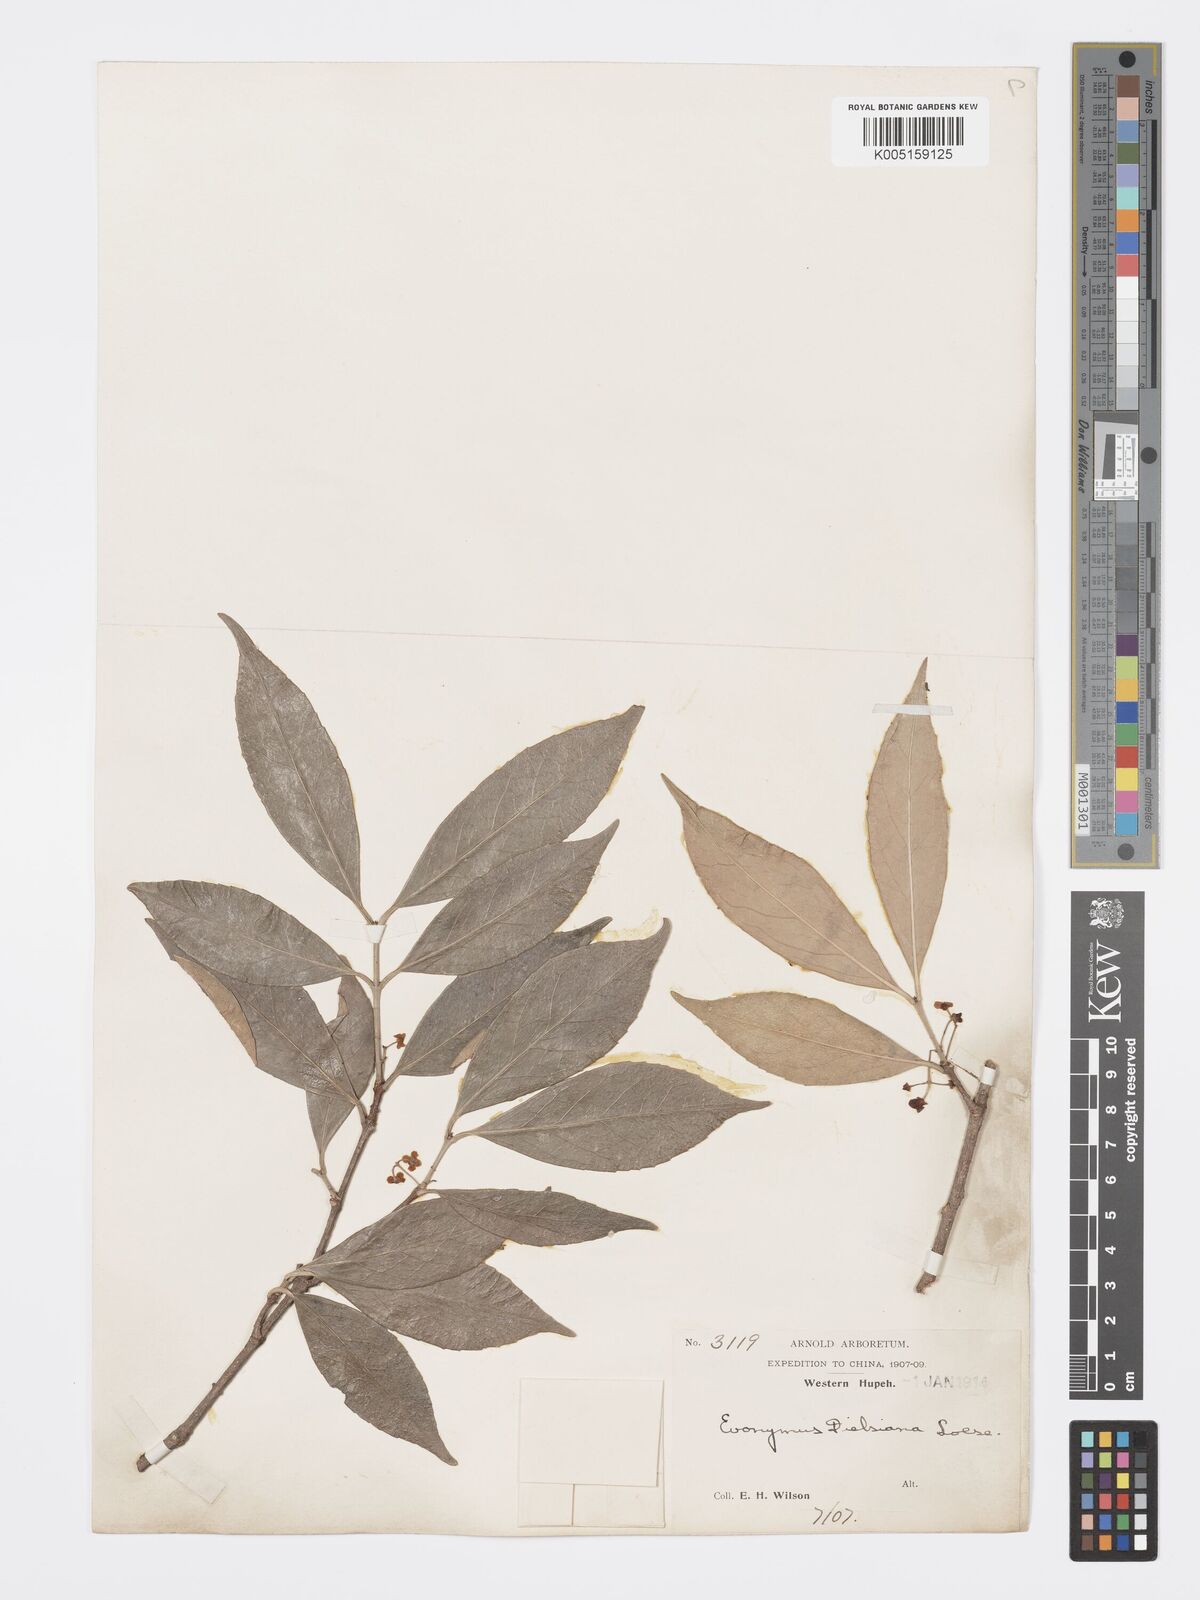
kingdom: Plantae
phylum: Tracheophyta
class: Magnoliopsida
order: Celastrales
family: Celastraceae
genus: Euonymus
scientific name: Euonymus dielsianus
